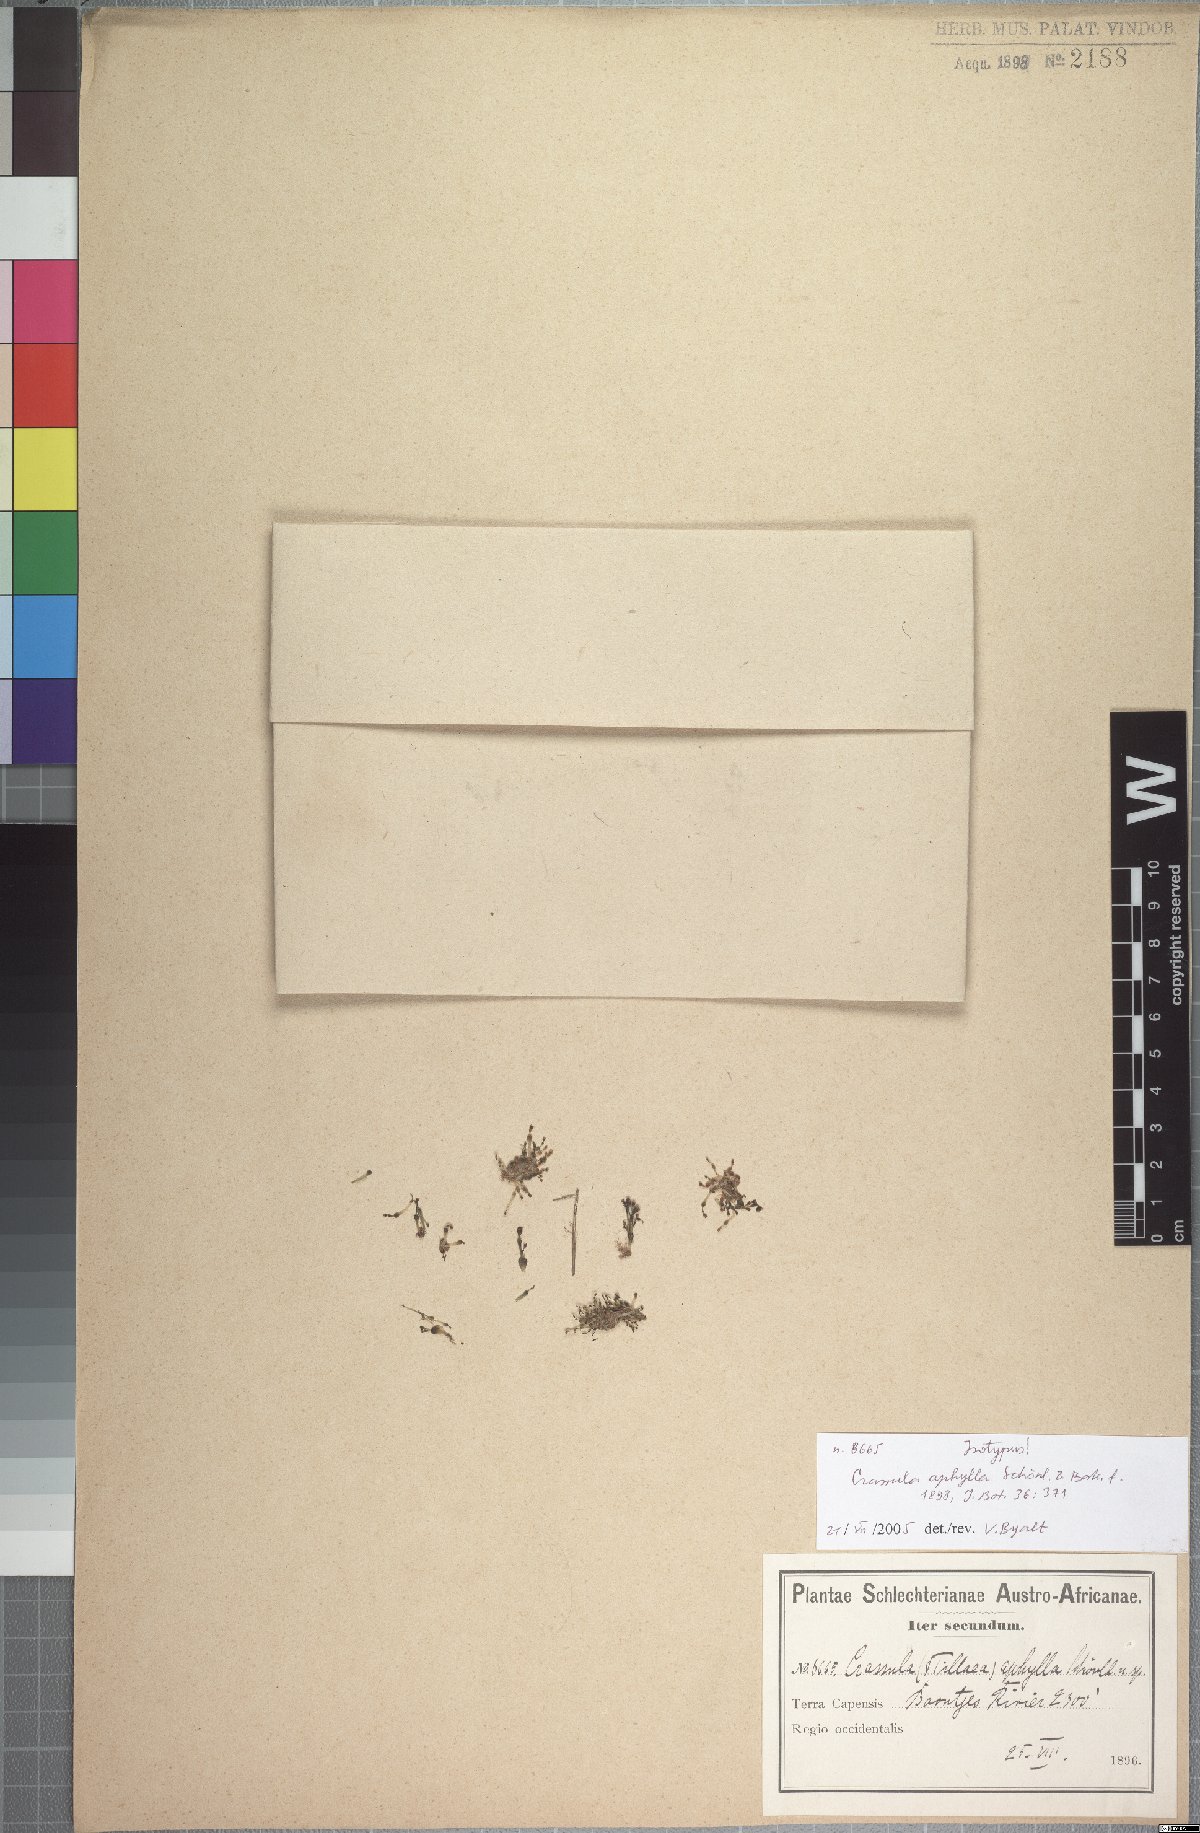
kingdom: Plantae
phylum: Tracheophyta
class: Magnoliopsida
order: Saxifragales
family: Crassulaceae
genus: Crassula
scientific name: Crassula aphylla
